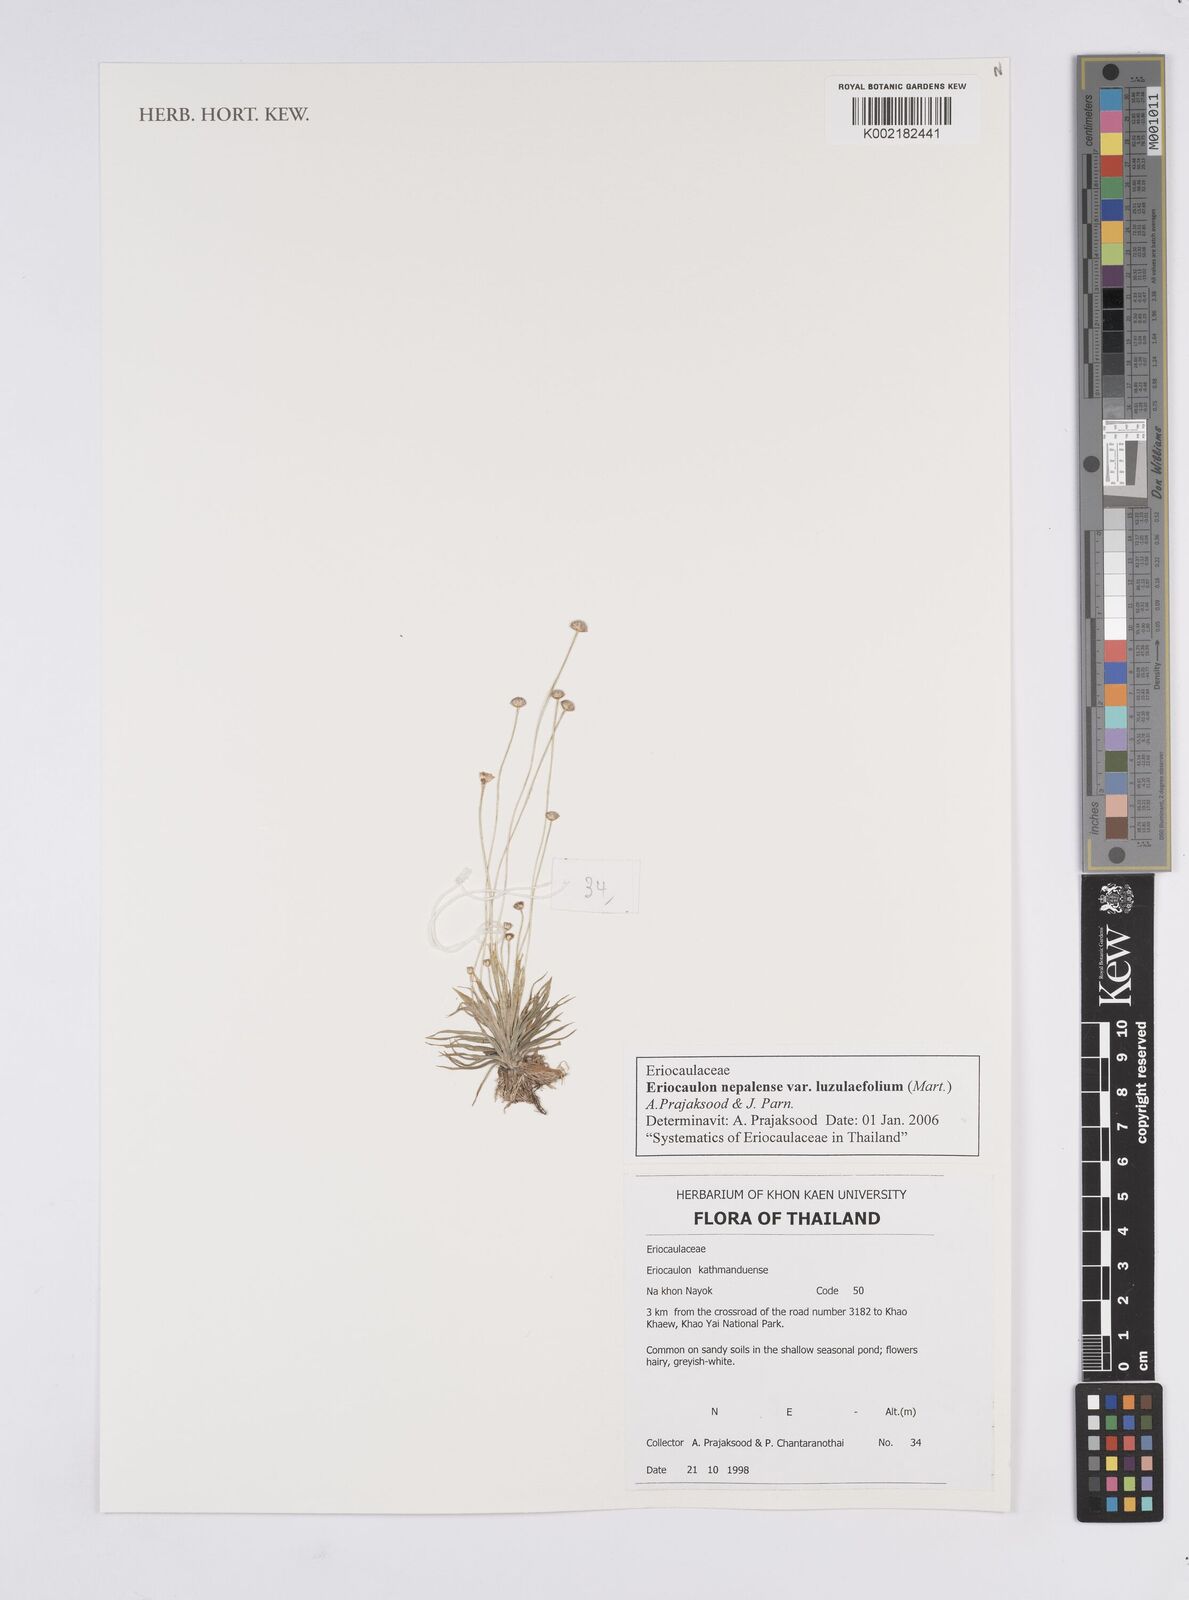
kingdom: Plantae
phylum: Tracheophyta
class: Liliopsida
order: Poales
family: Eriocaulaceae
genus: Eriocaulon
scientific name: Eriocaulon nepalense
